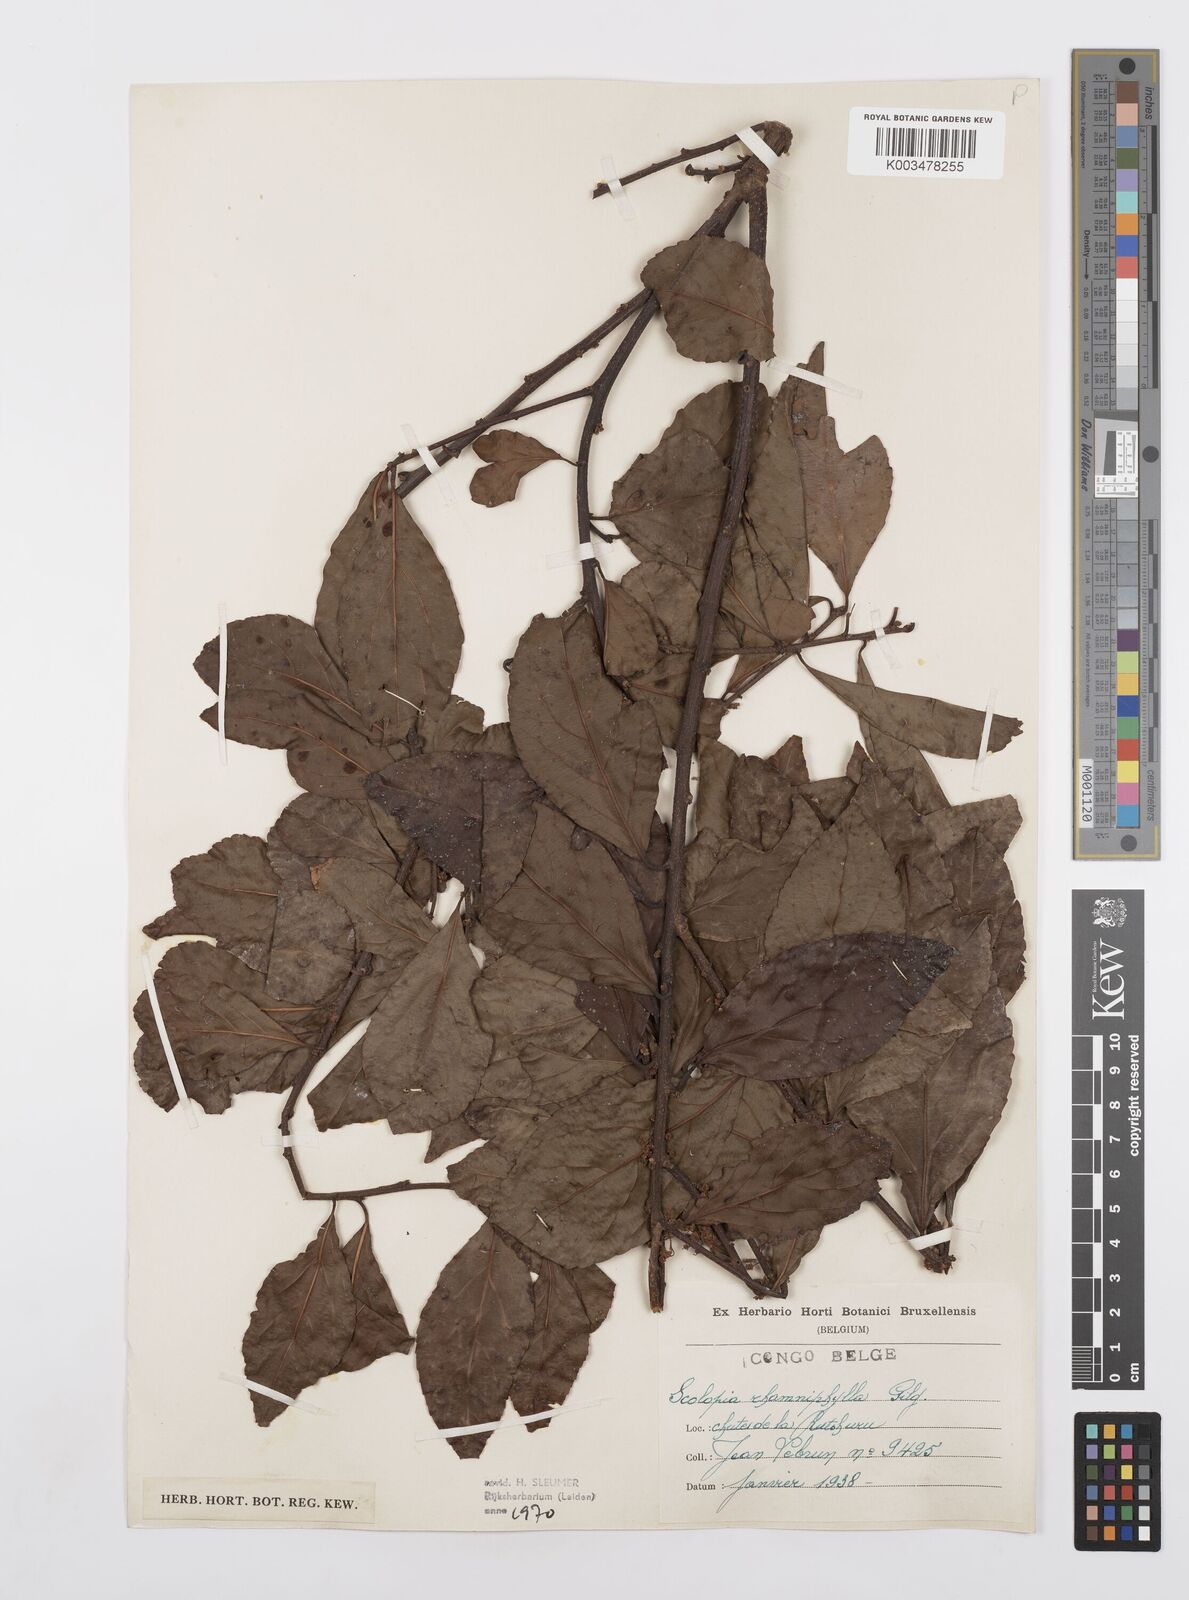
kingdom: Plantae
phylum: Tracheophyta
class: Magnoliopsida
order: Malpighiales
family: Salicaceae
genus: Scolopia
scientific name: Scolopia rhamniphylla
